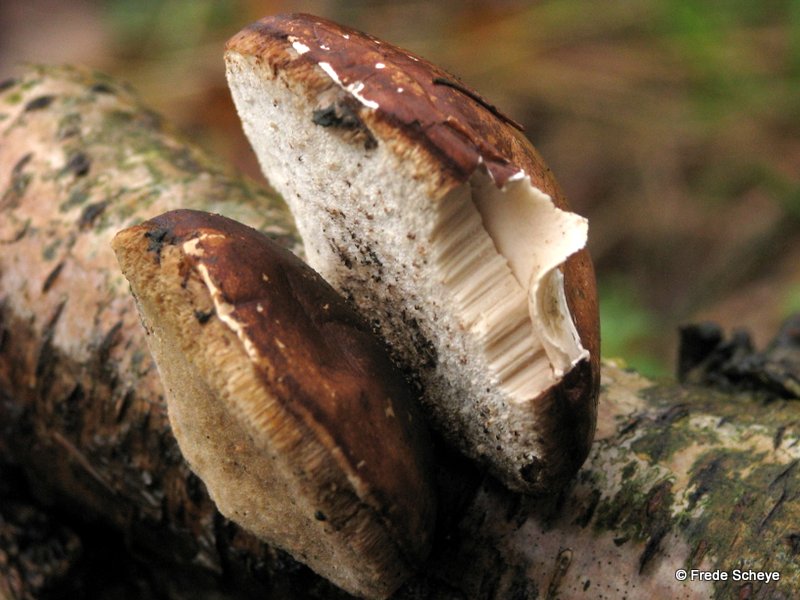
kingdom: Fungi
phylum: Basidiomycota
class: Agaricomycetes
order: Polyporales
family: Fomitopsidaceae
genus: Fomitopsis
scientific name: Fomitopsis betulina
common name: birkeporesvamp
